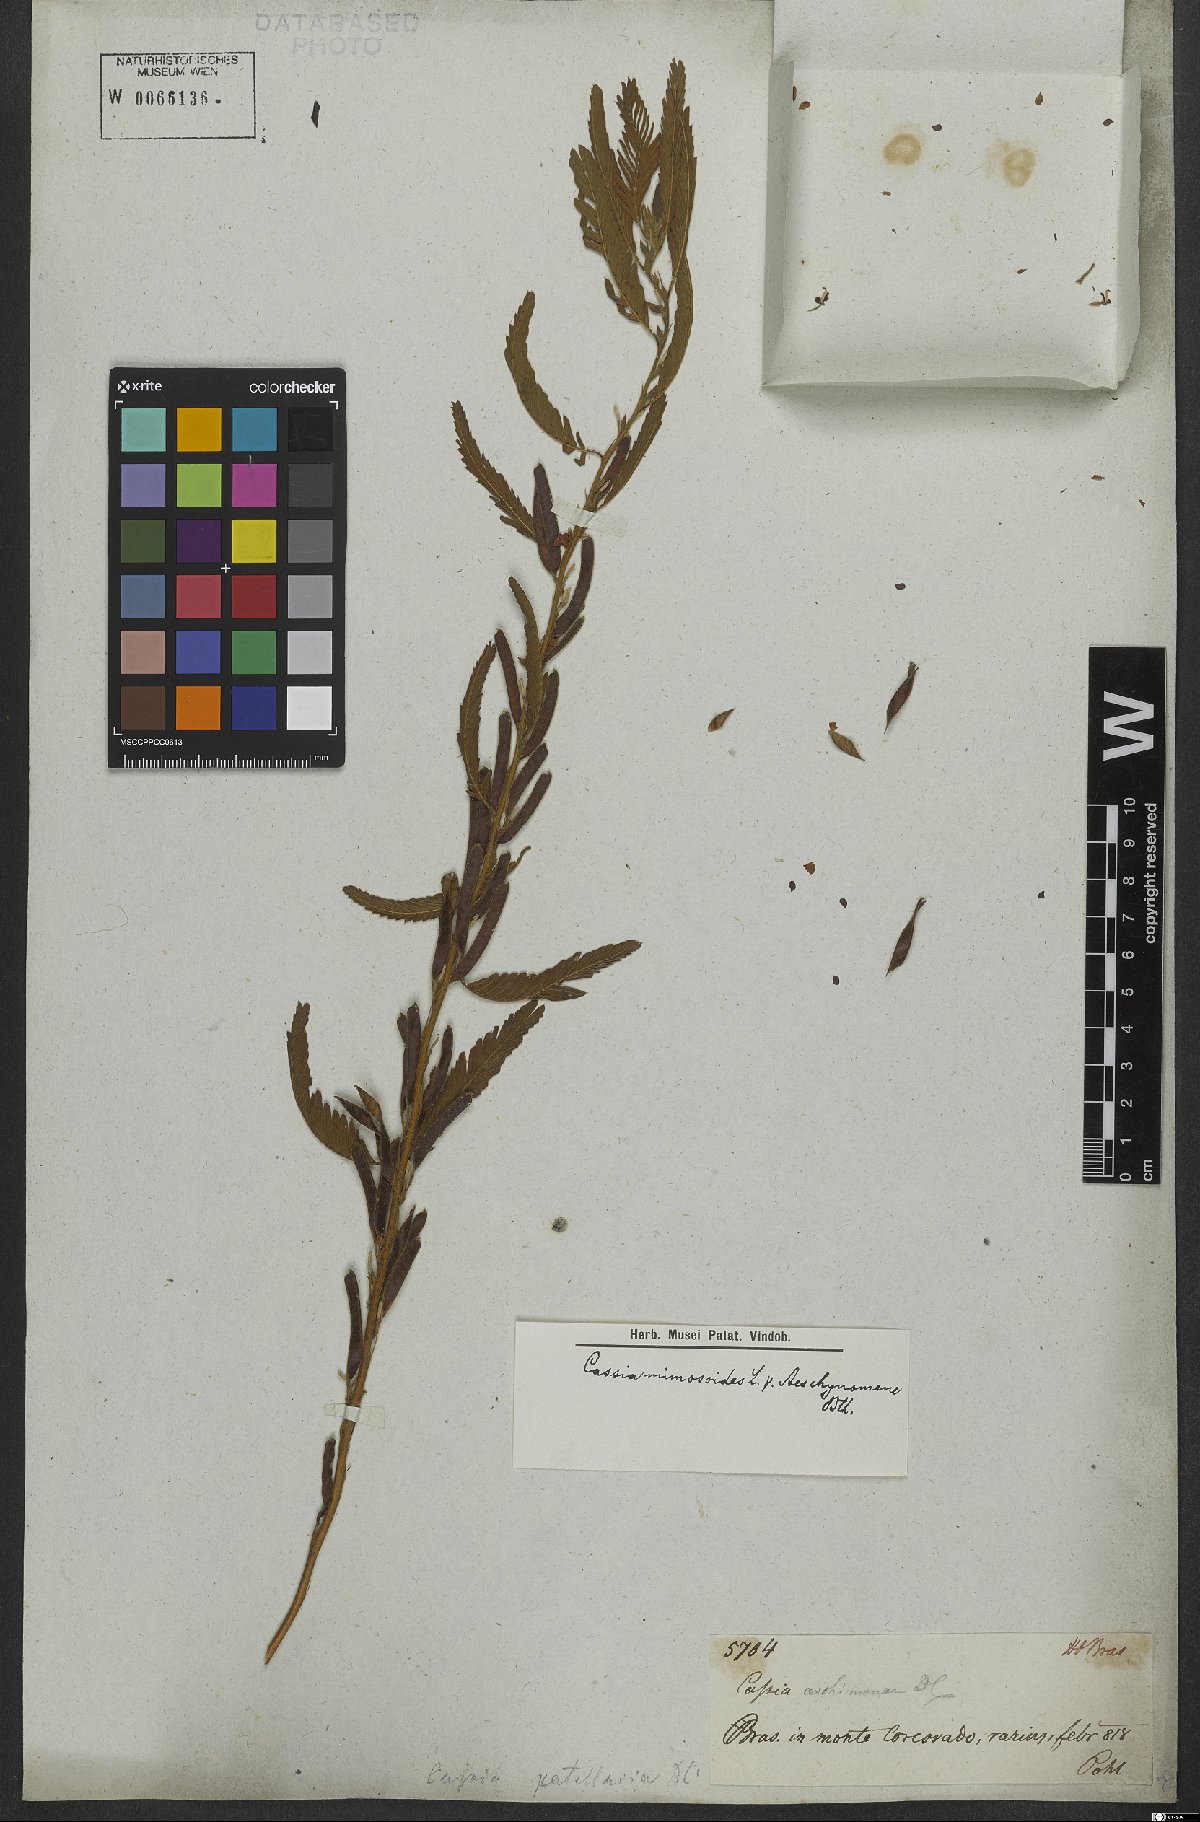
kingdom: Plantae
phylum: Tracheophyta
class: Magnoliopsida
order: Fabales
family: Fabaceae
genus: Chamaecrista
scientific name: Chamaecrista nictitans
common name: Sensitive cassia
